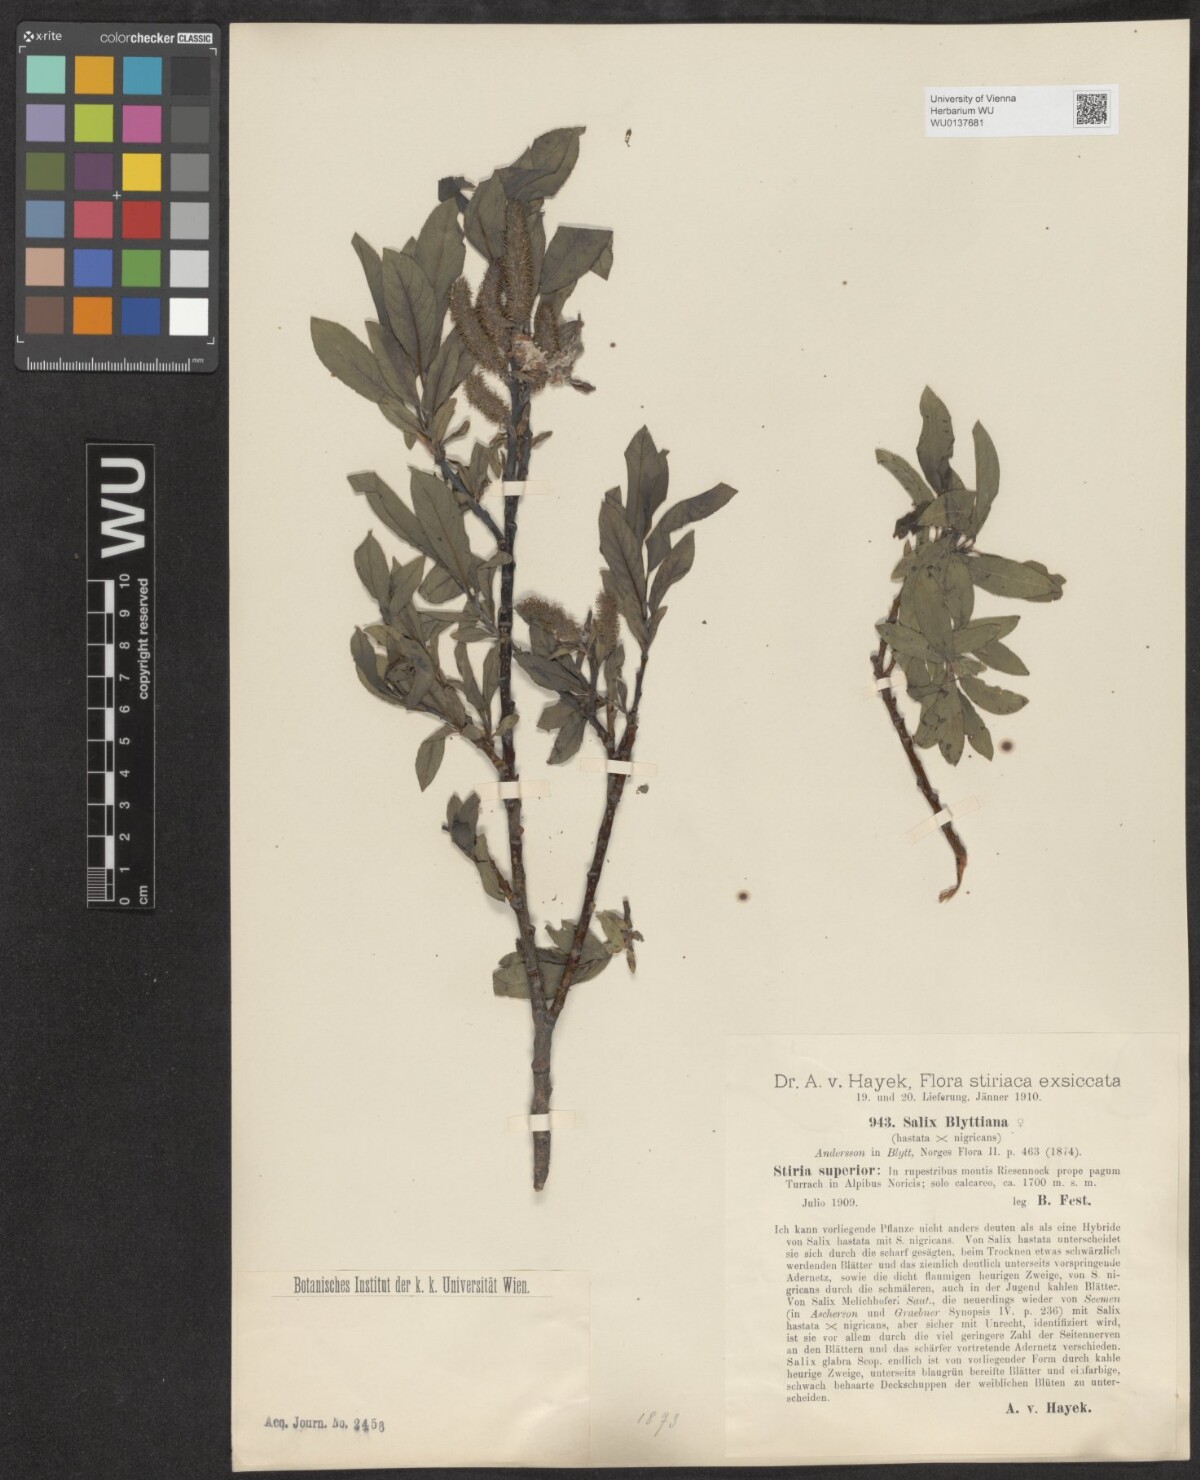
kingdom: Plantae
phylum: Tracheophyta
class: Magnoliopsida
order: Malpighiales
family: Salicaceae
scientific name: Salicaceae
